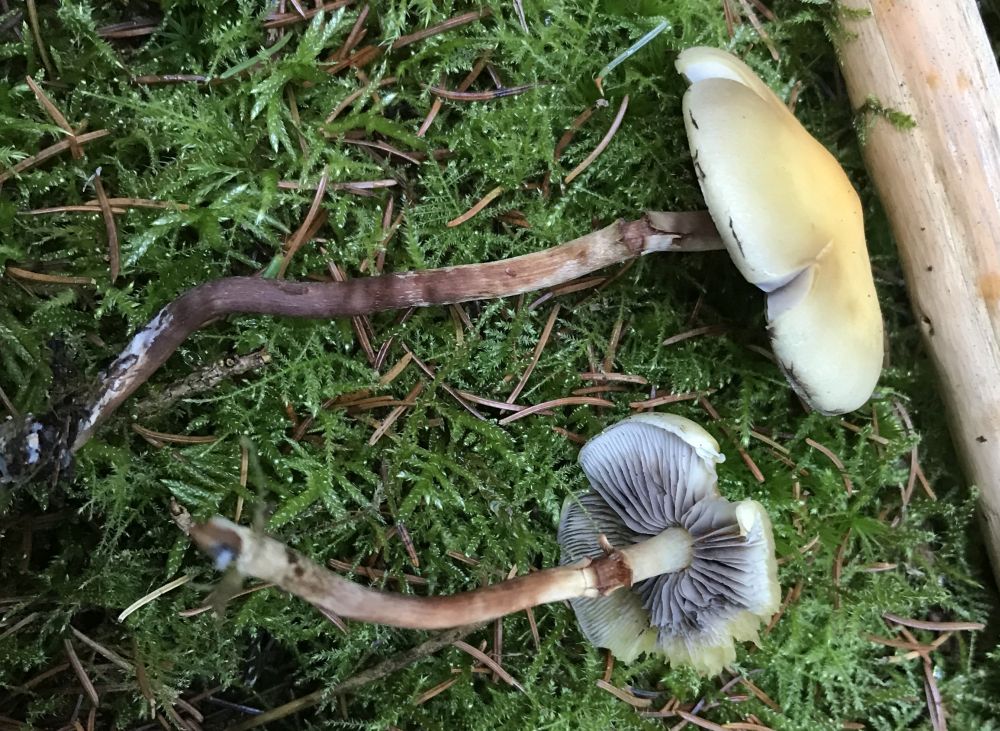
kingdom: Fungi
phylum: Basidiomycota
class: Agaricomycetes
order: Agaricales
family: Strophariaceae
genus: Hypholoma
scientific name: Hypholoma capnoides
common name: gran-svovlhat
